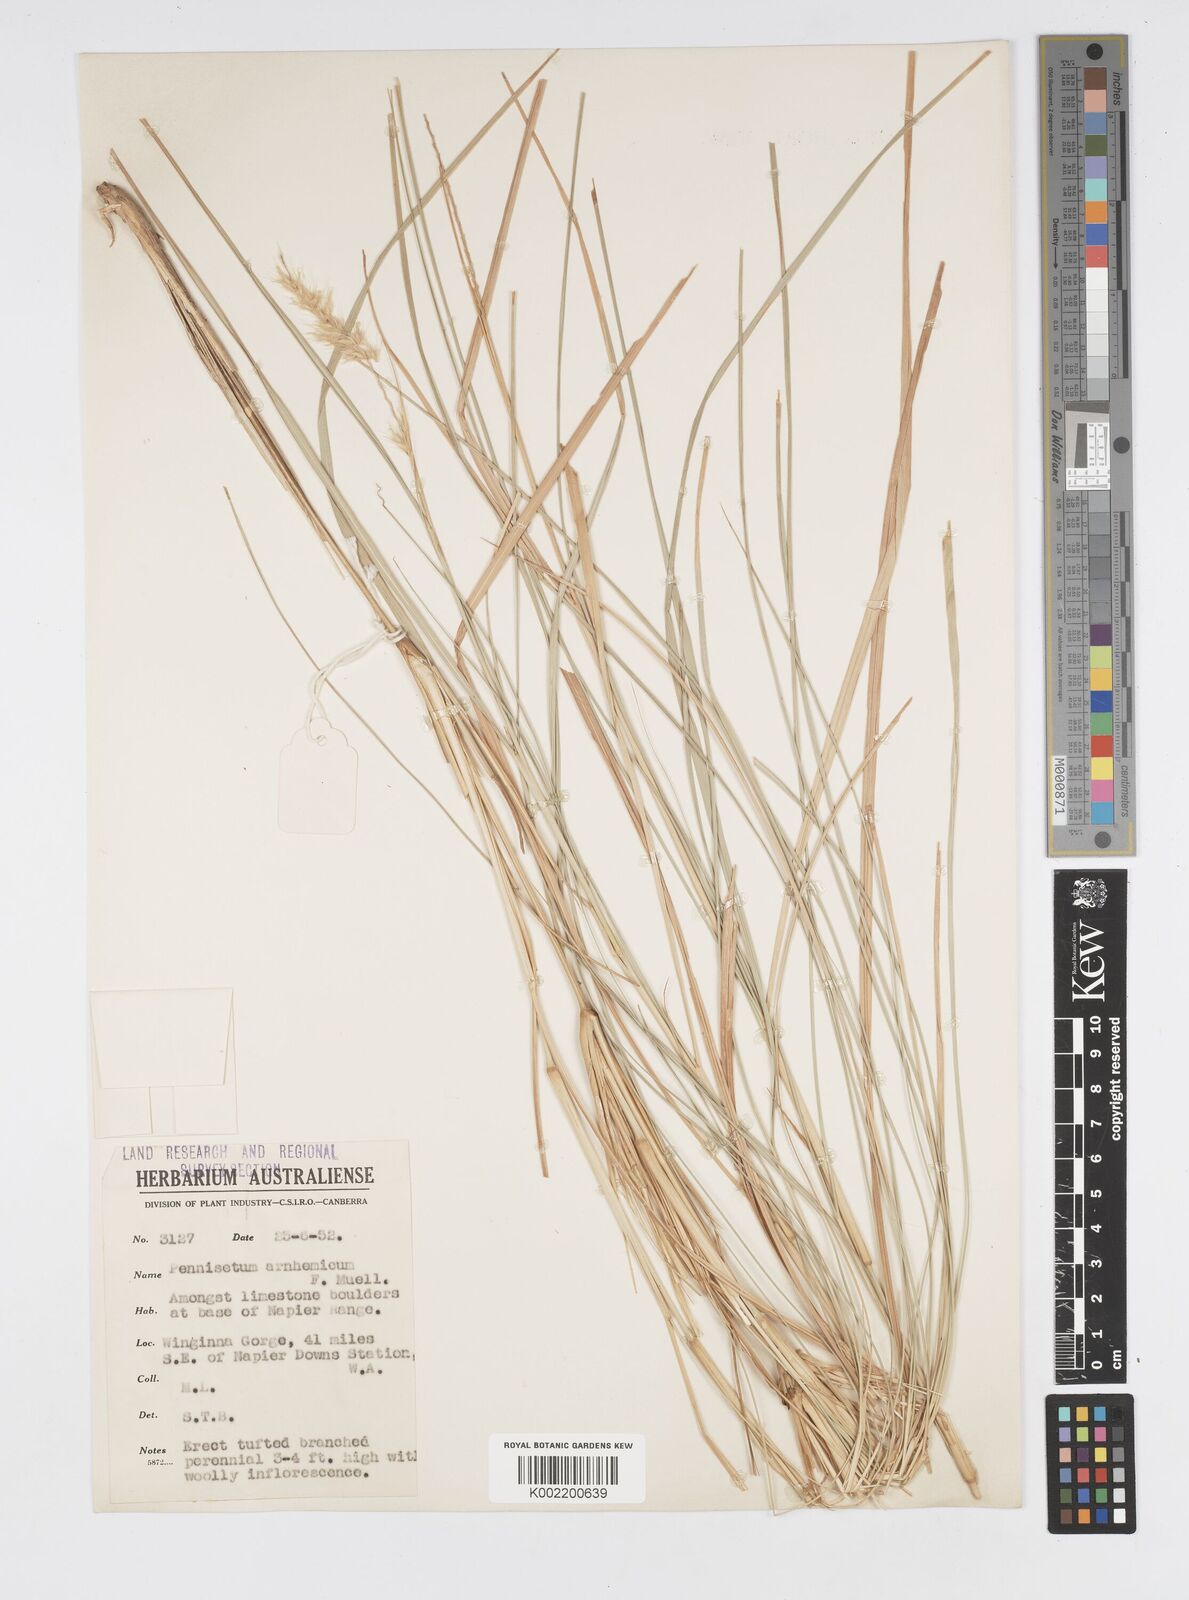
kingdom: Plantae
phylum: Tracheophyta
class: Liliopsida
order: Poales
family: Poaceae
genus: Cenchrus
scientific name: Cenchrus arnhemicus
